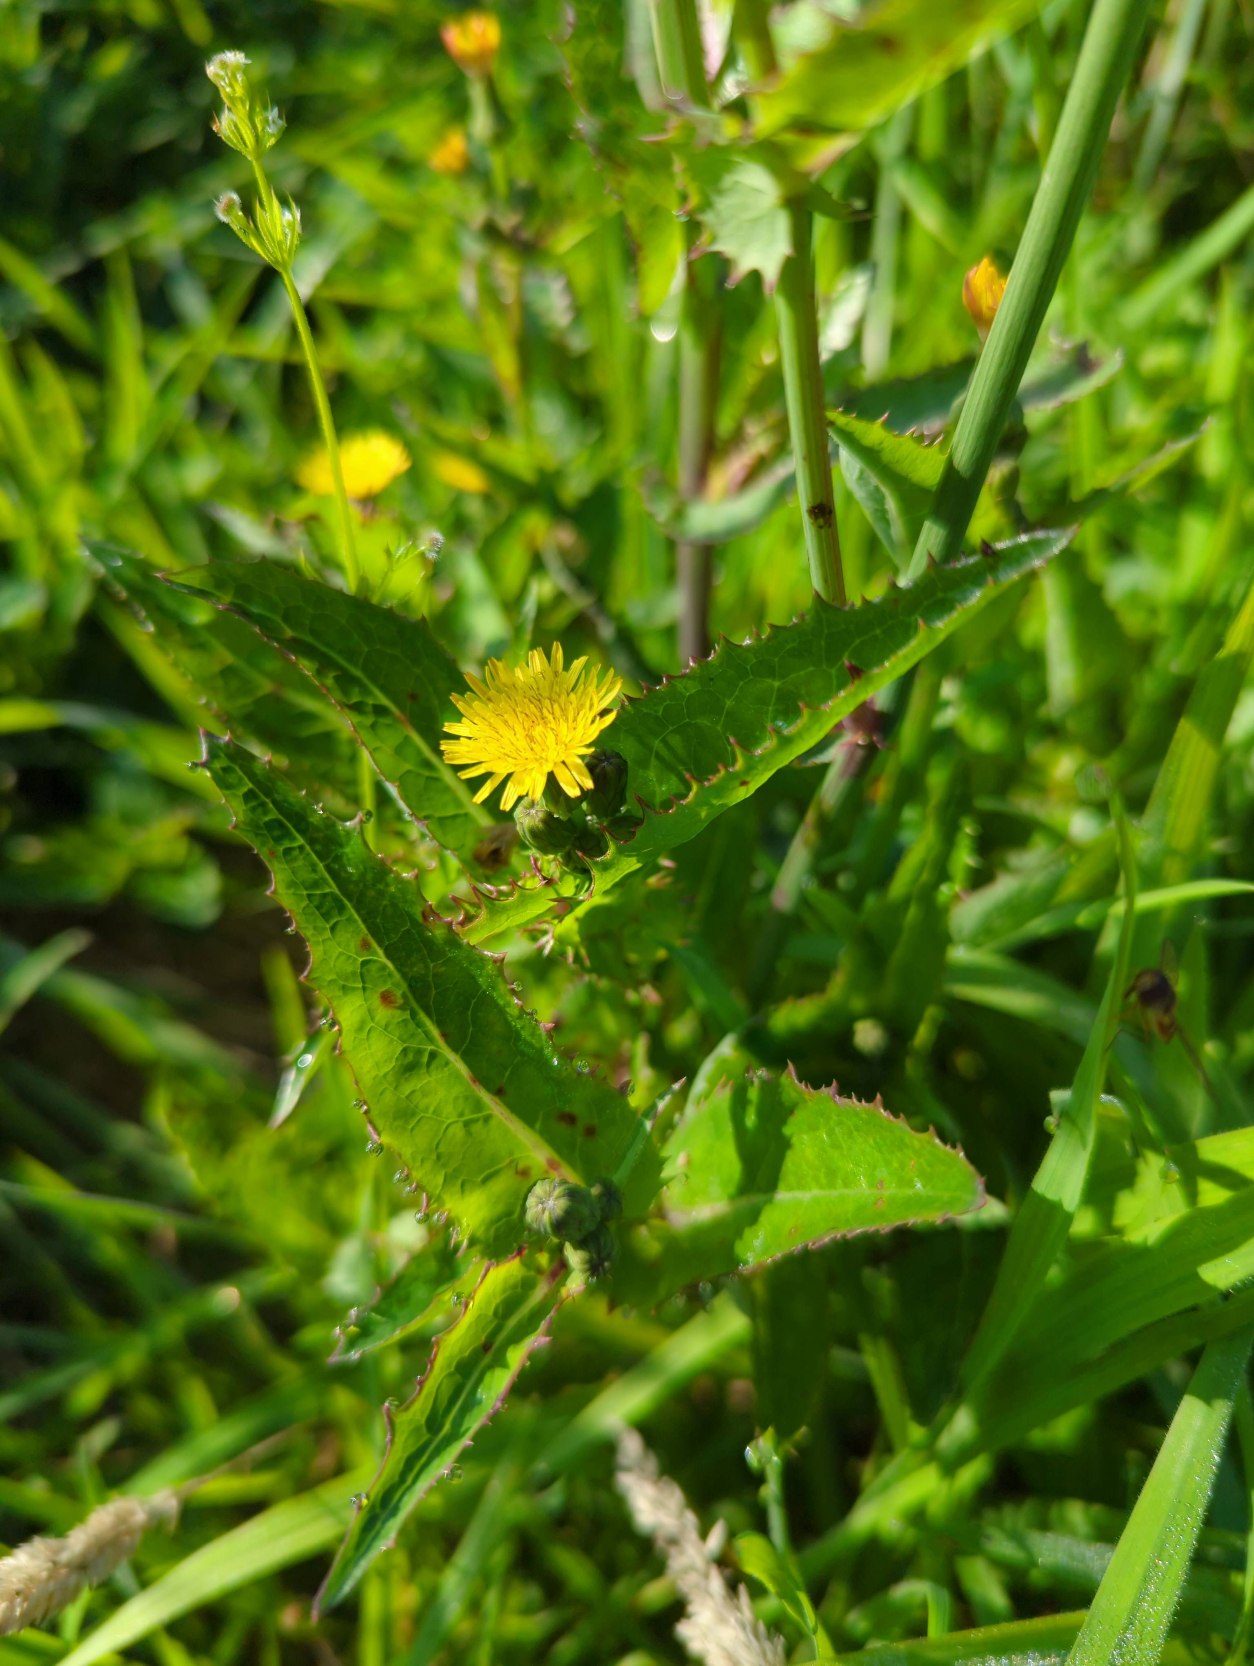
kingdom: Plantae
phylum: Tracheophyta
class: Magnoliopsida
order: Asterales
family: Asteraceae
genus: Sonchus
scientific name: Sonchus asper
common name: Ru svinemælk
